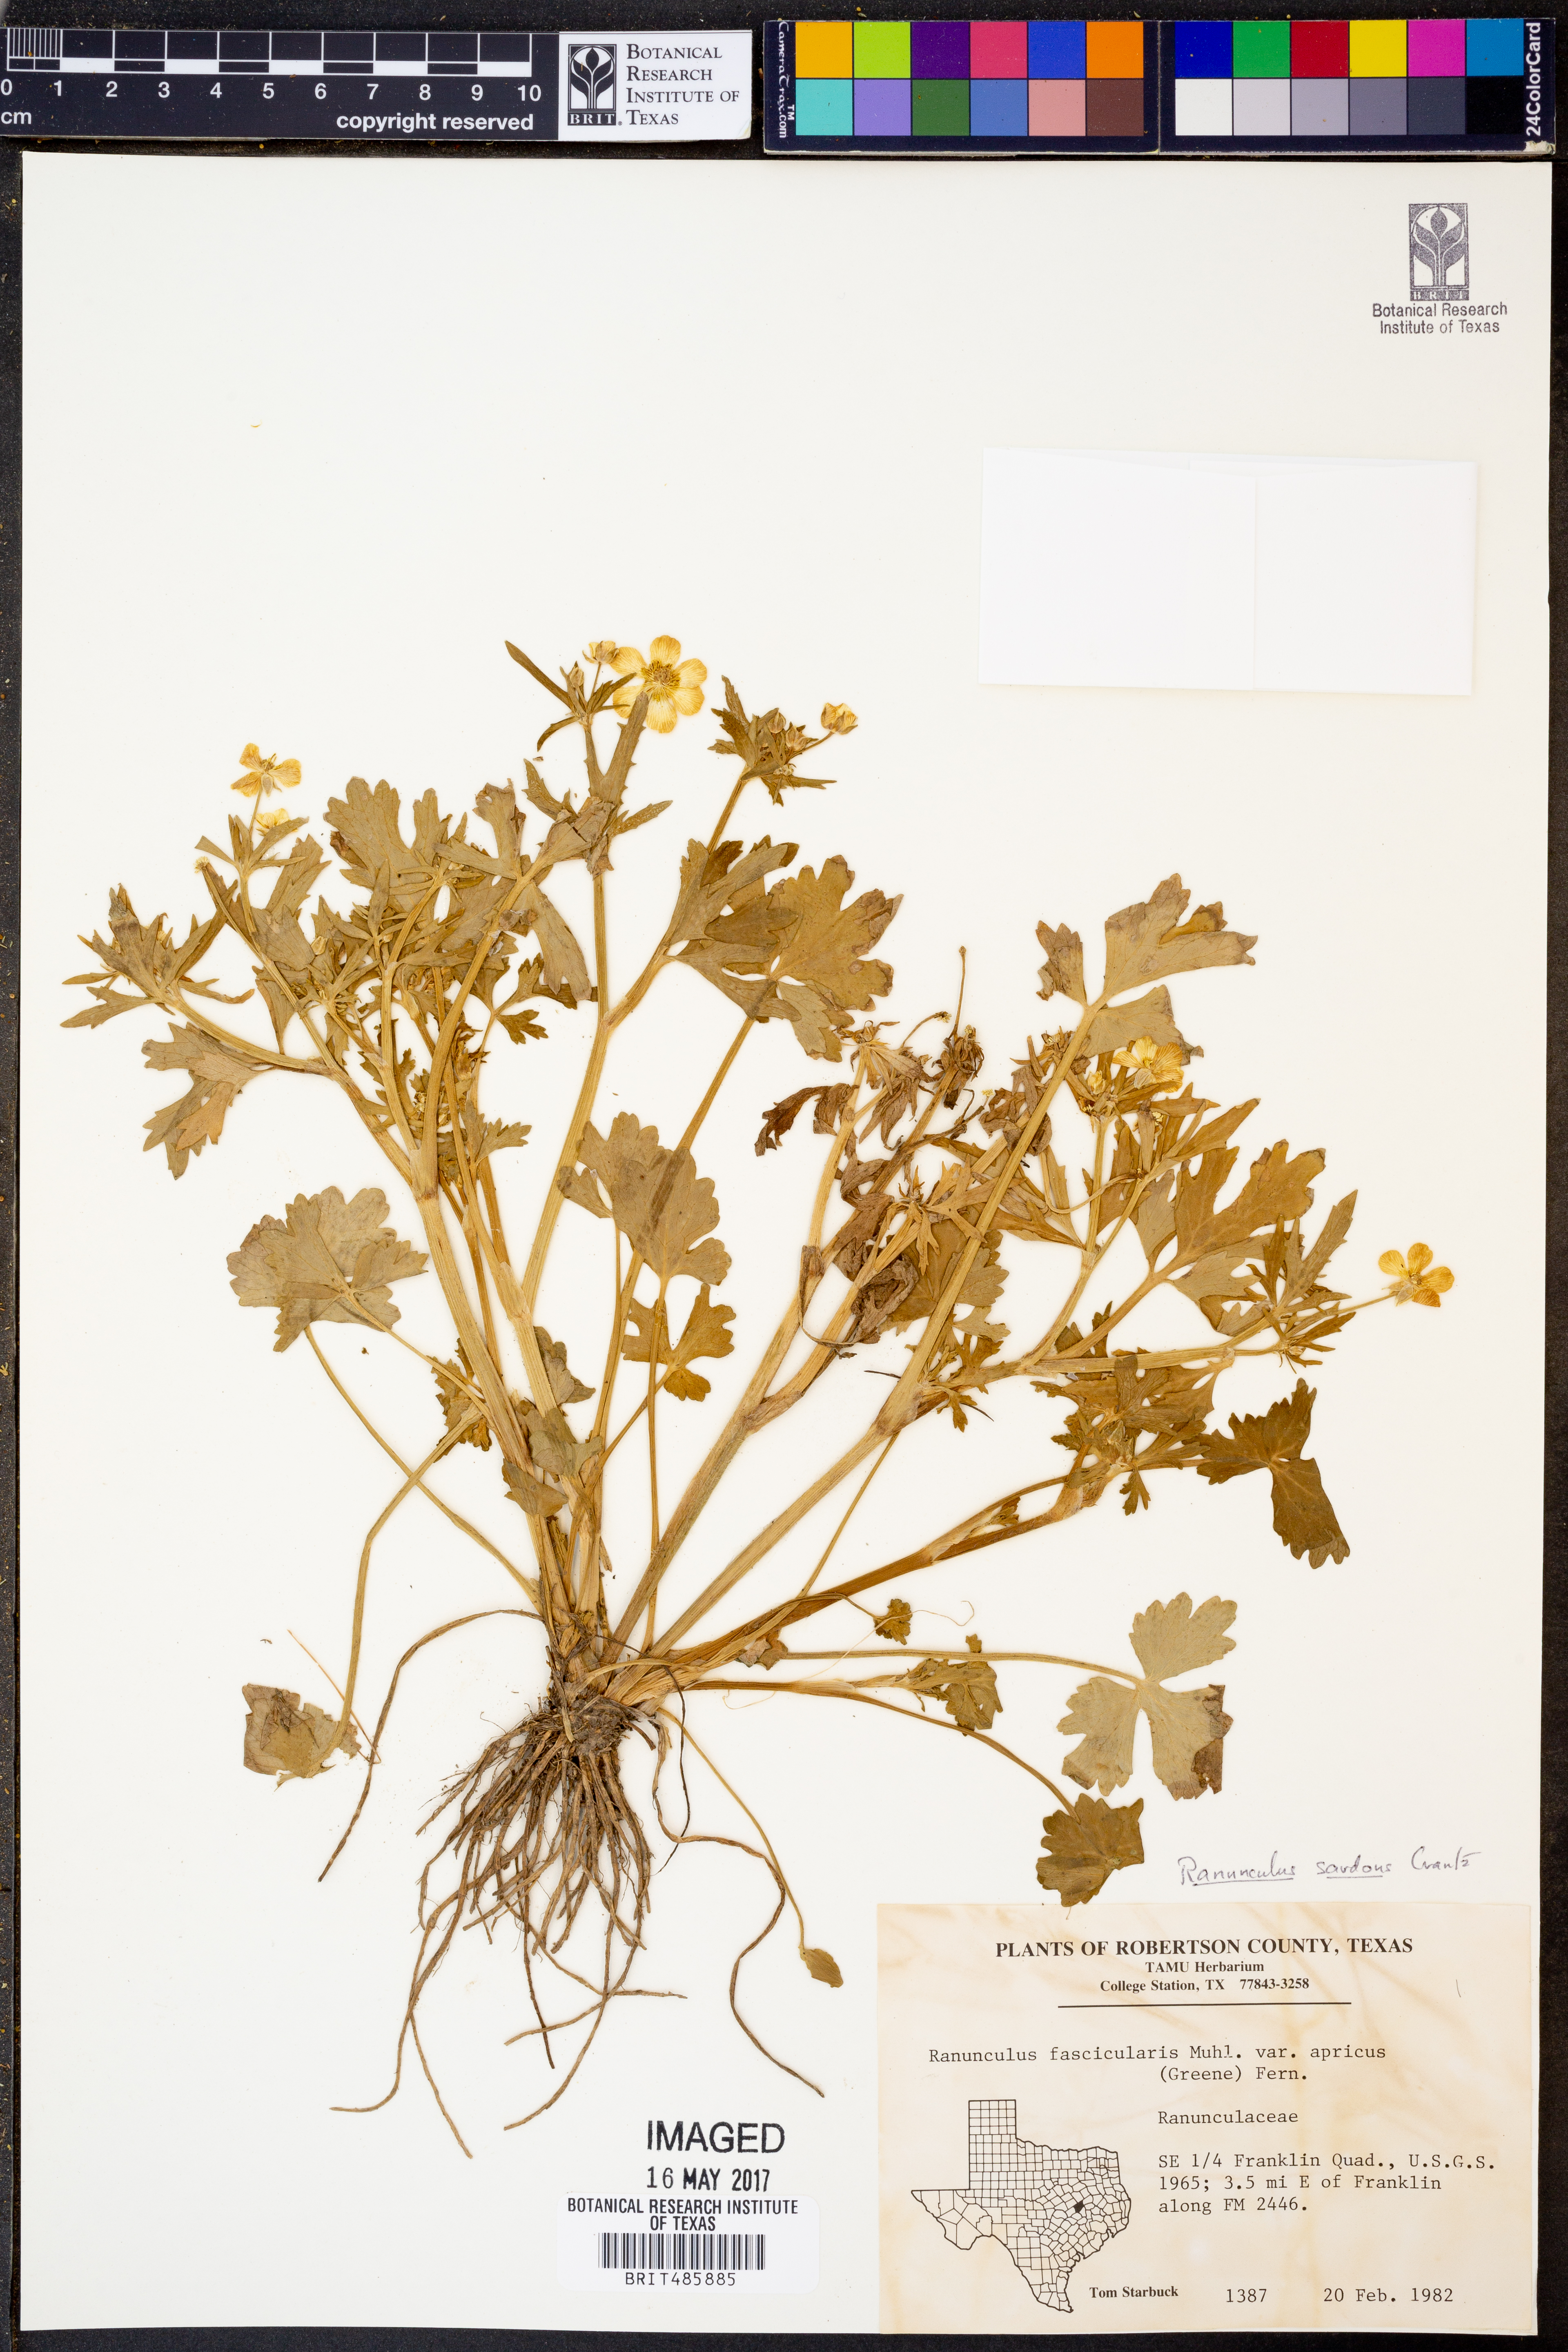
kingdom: Plantae
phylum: Tracheophyta
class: Magnoliopsida
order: Ranunculales
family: Ranunculaceae
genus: Ranunculus
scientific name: Ranunculus fascicularis
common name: Early buttercup
